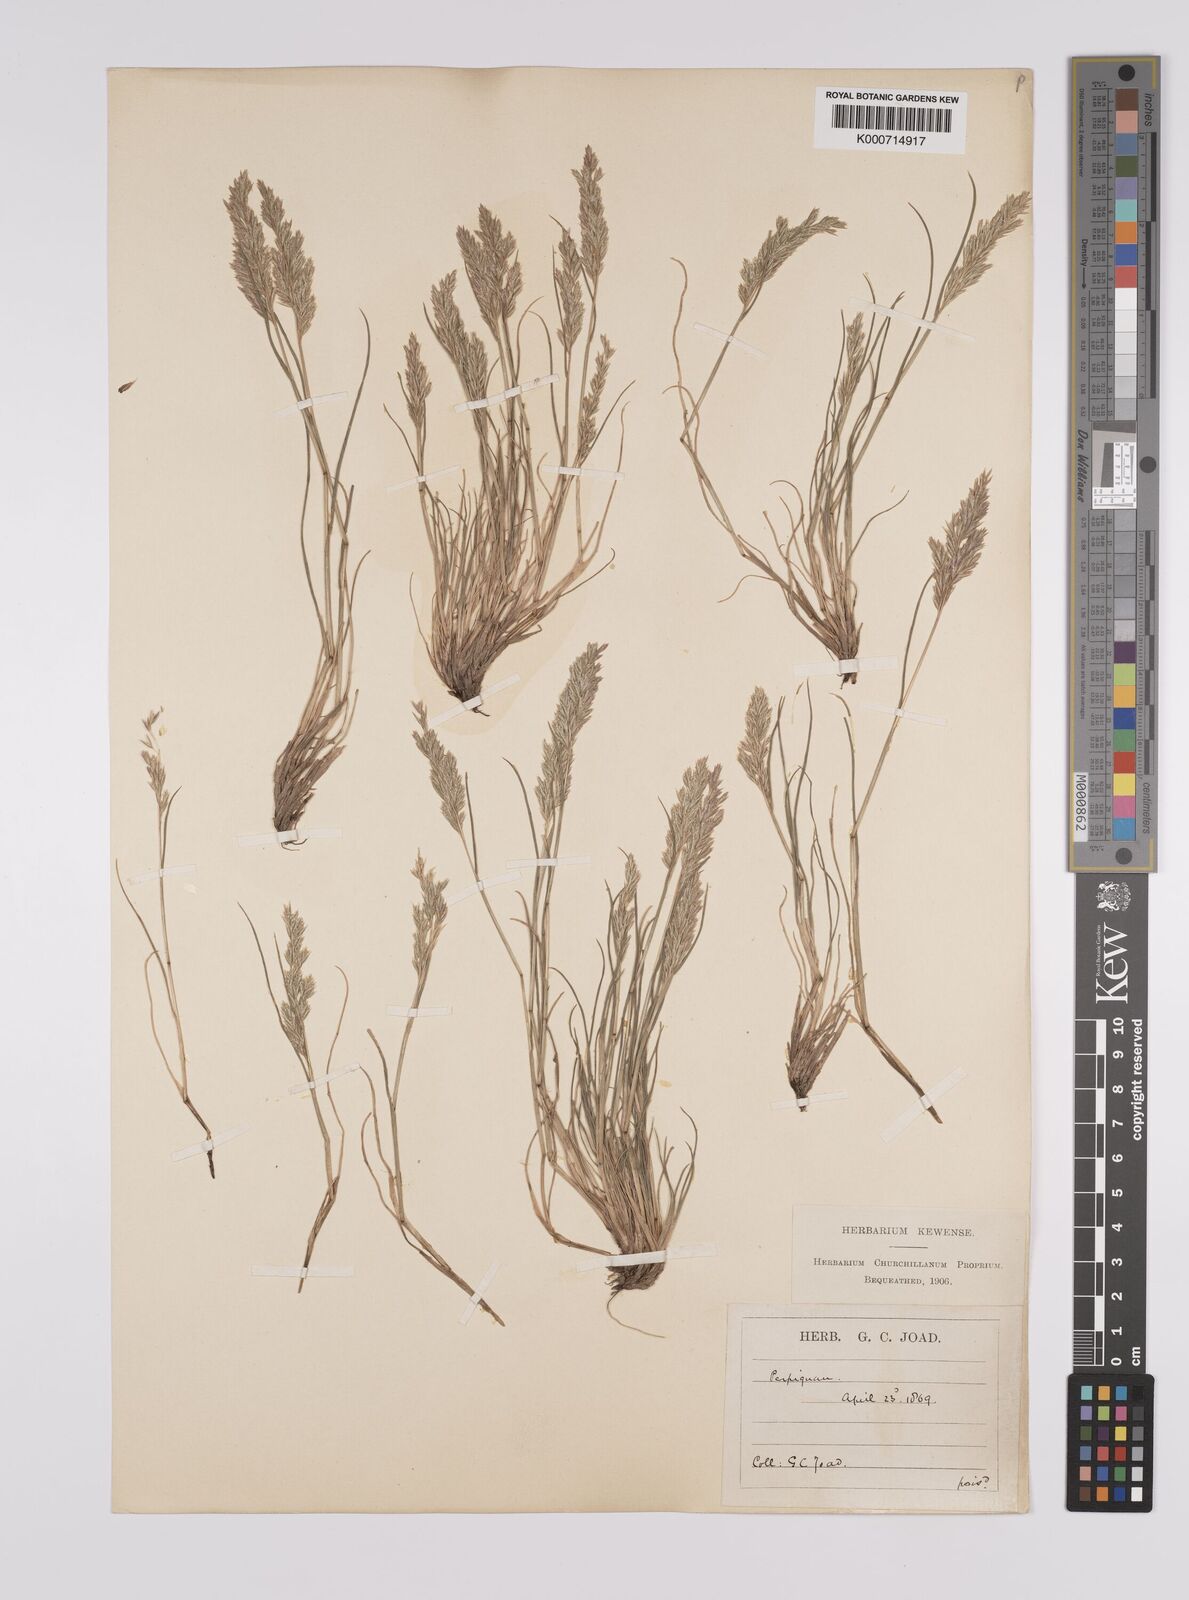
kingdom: Plantae
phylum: Tracheophyta
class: Liliopsida
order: Poales
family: Poaceae
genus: Schismus
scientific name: Schismus barbatus
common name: Kelch-grass
